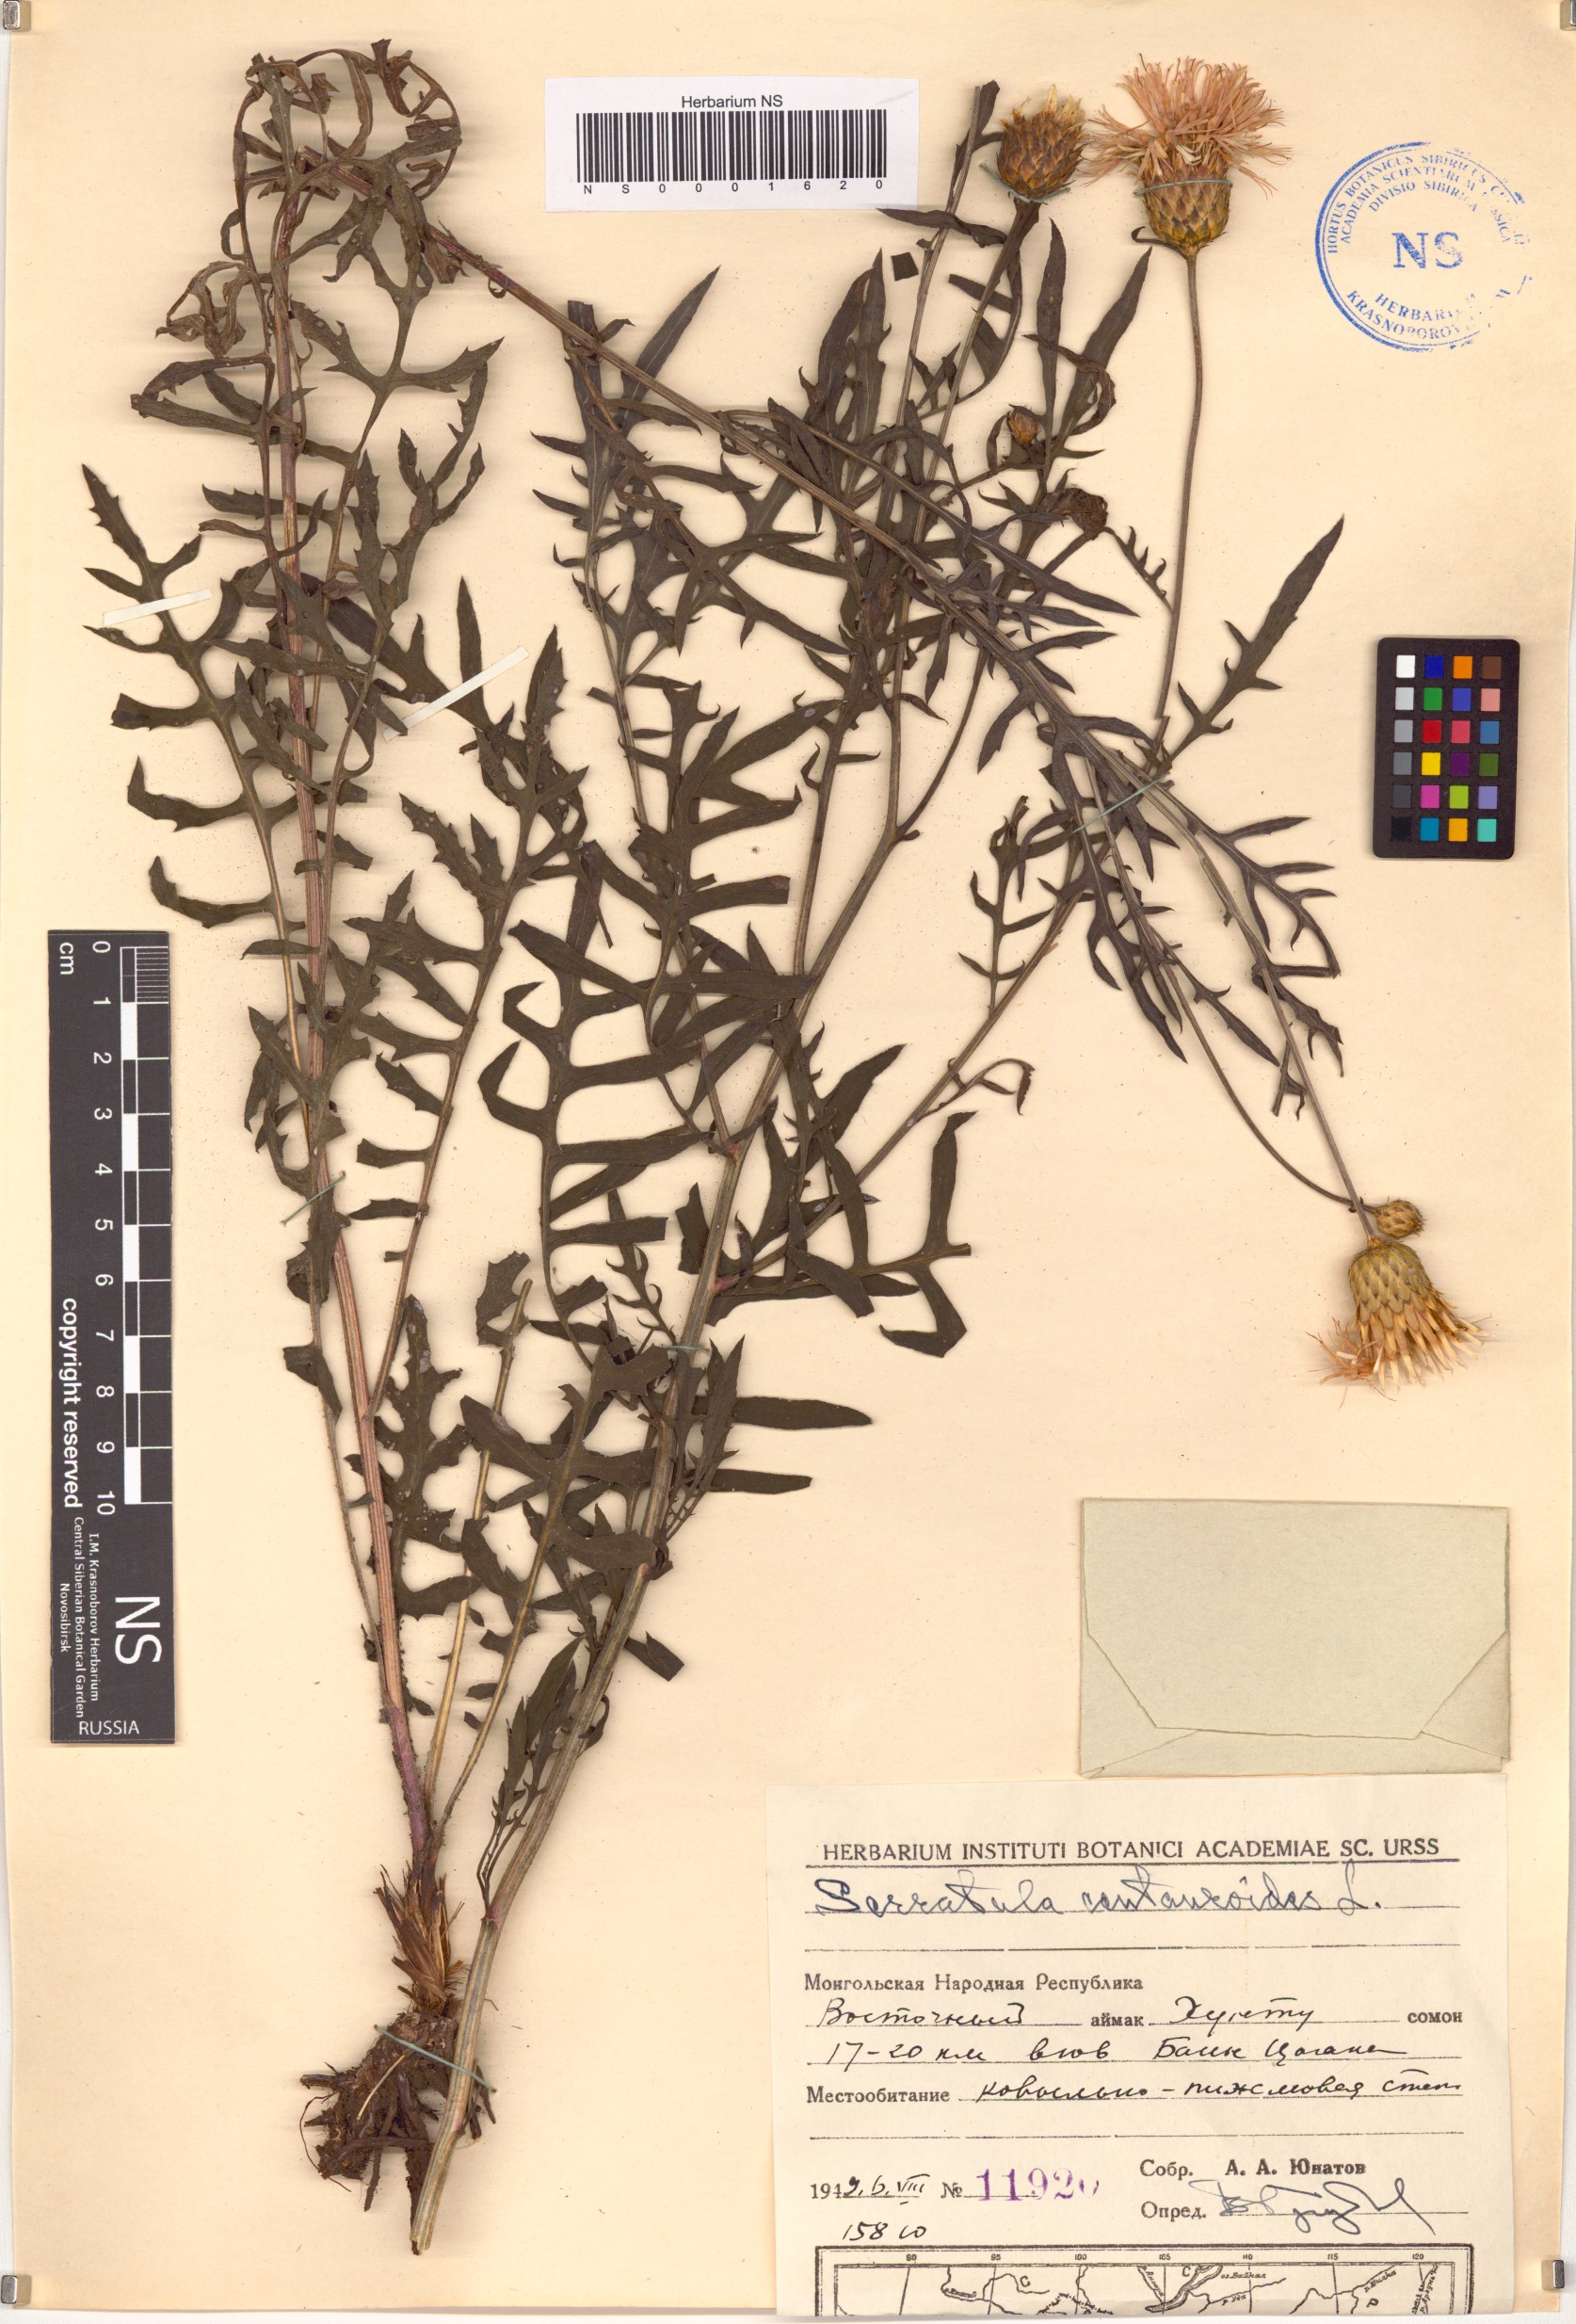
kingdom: Plantae
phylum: Tracheophyta
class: Magnoliopsida
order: Asterales
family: Asteraceae
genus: Klasea
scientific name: Klasea centauroides
